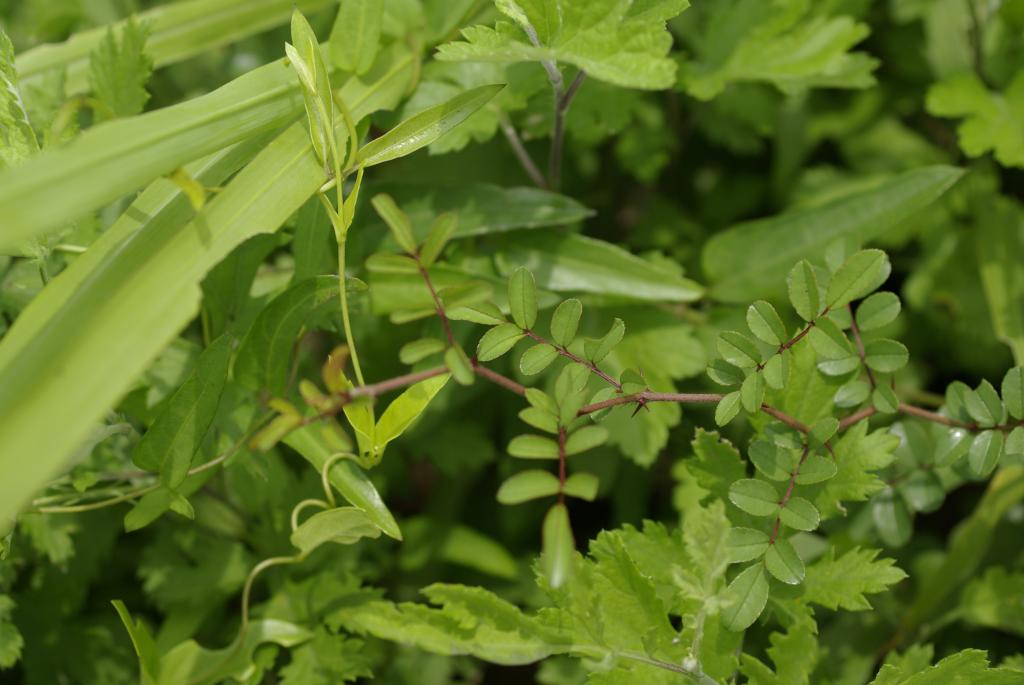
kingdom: Plantae
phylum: Tracheophyta
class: Magnoliopsida
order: Rosales
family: Rosaceae
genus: Rosa
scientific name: Rosa bracteata
